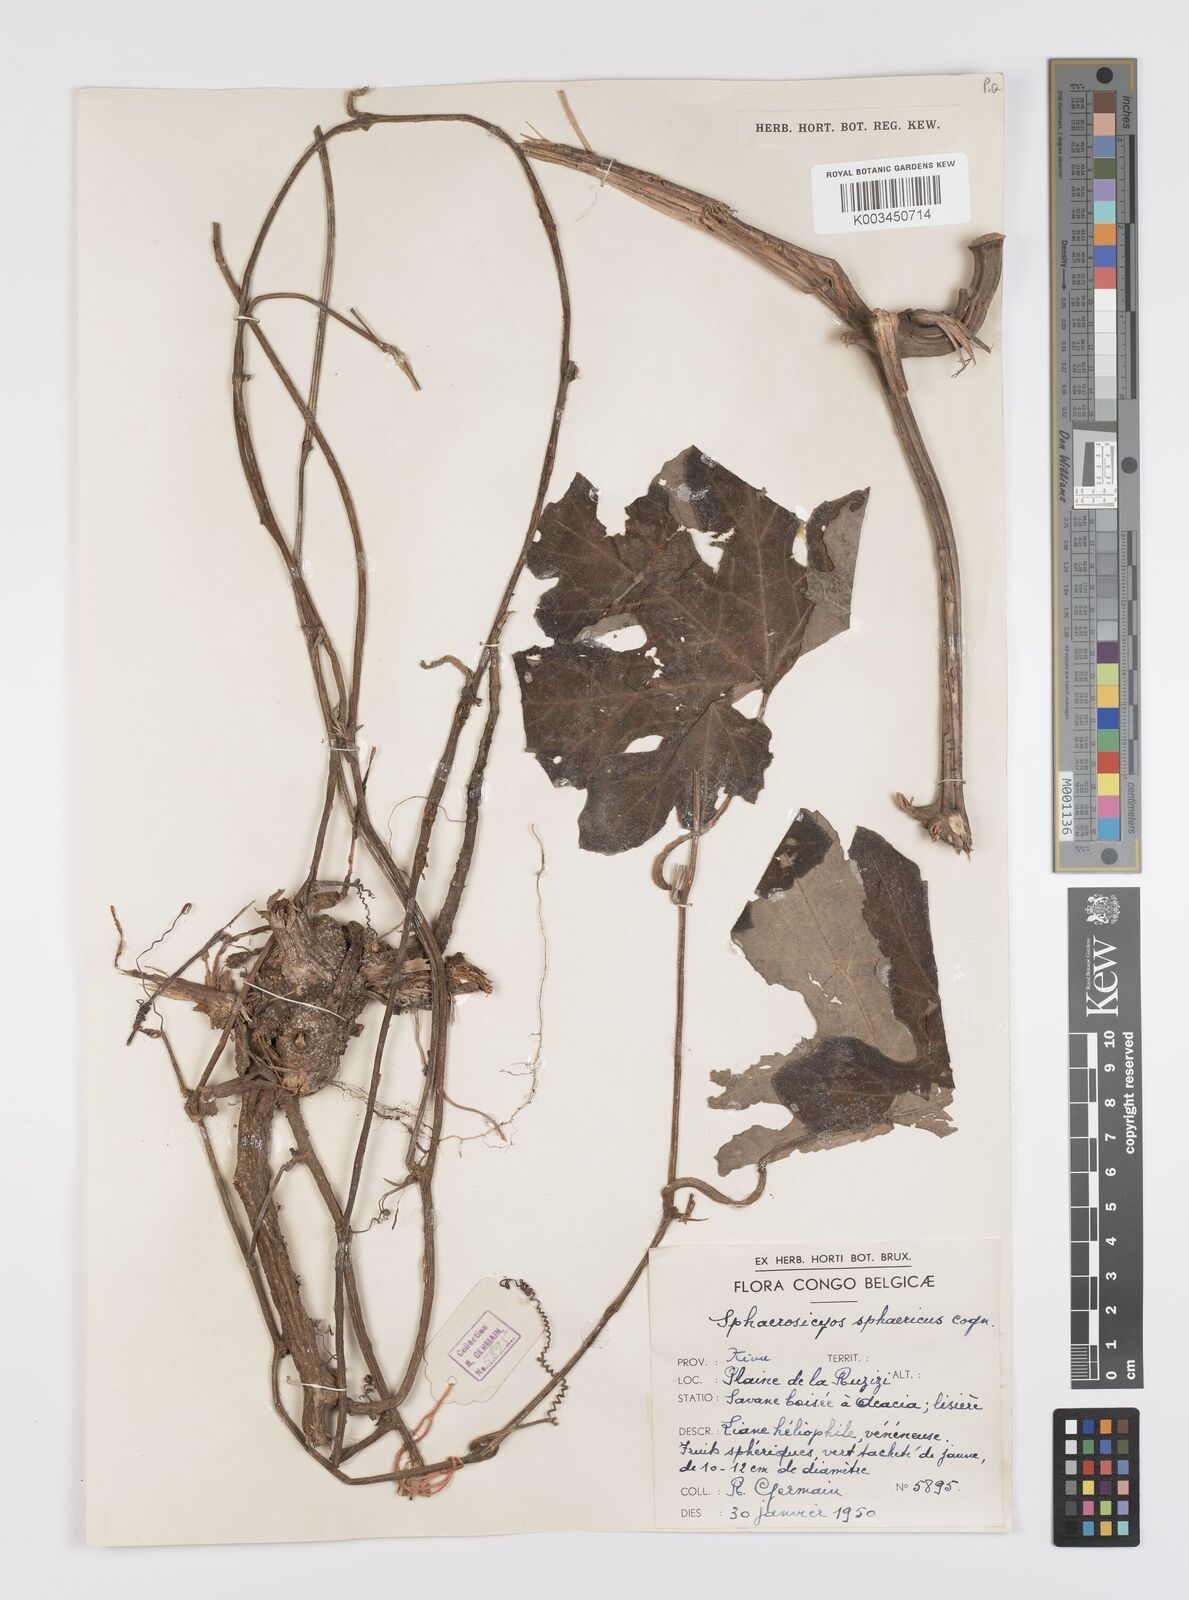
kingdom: Plantae
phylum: Tracheophyta
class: Magnoliopsida
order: Cucurbitales
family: Cucurbitaceae
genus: Lagenaria
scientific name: Lagenaria sphaerica
